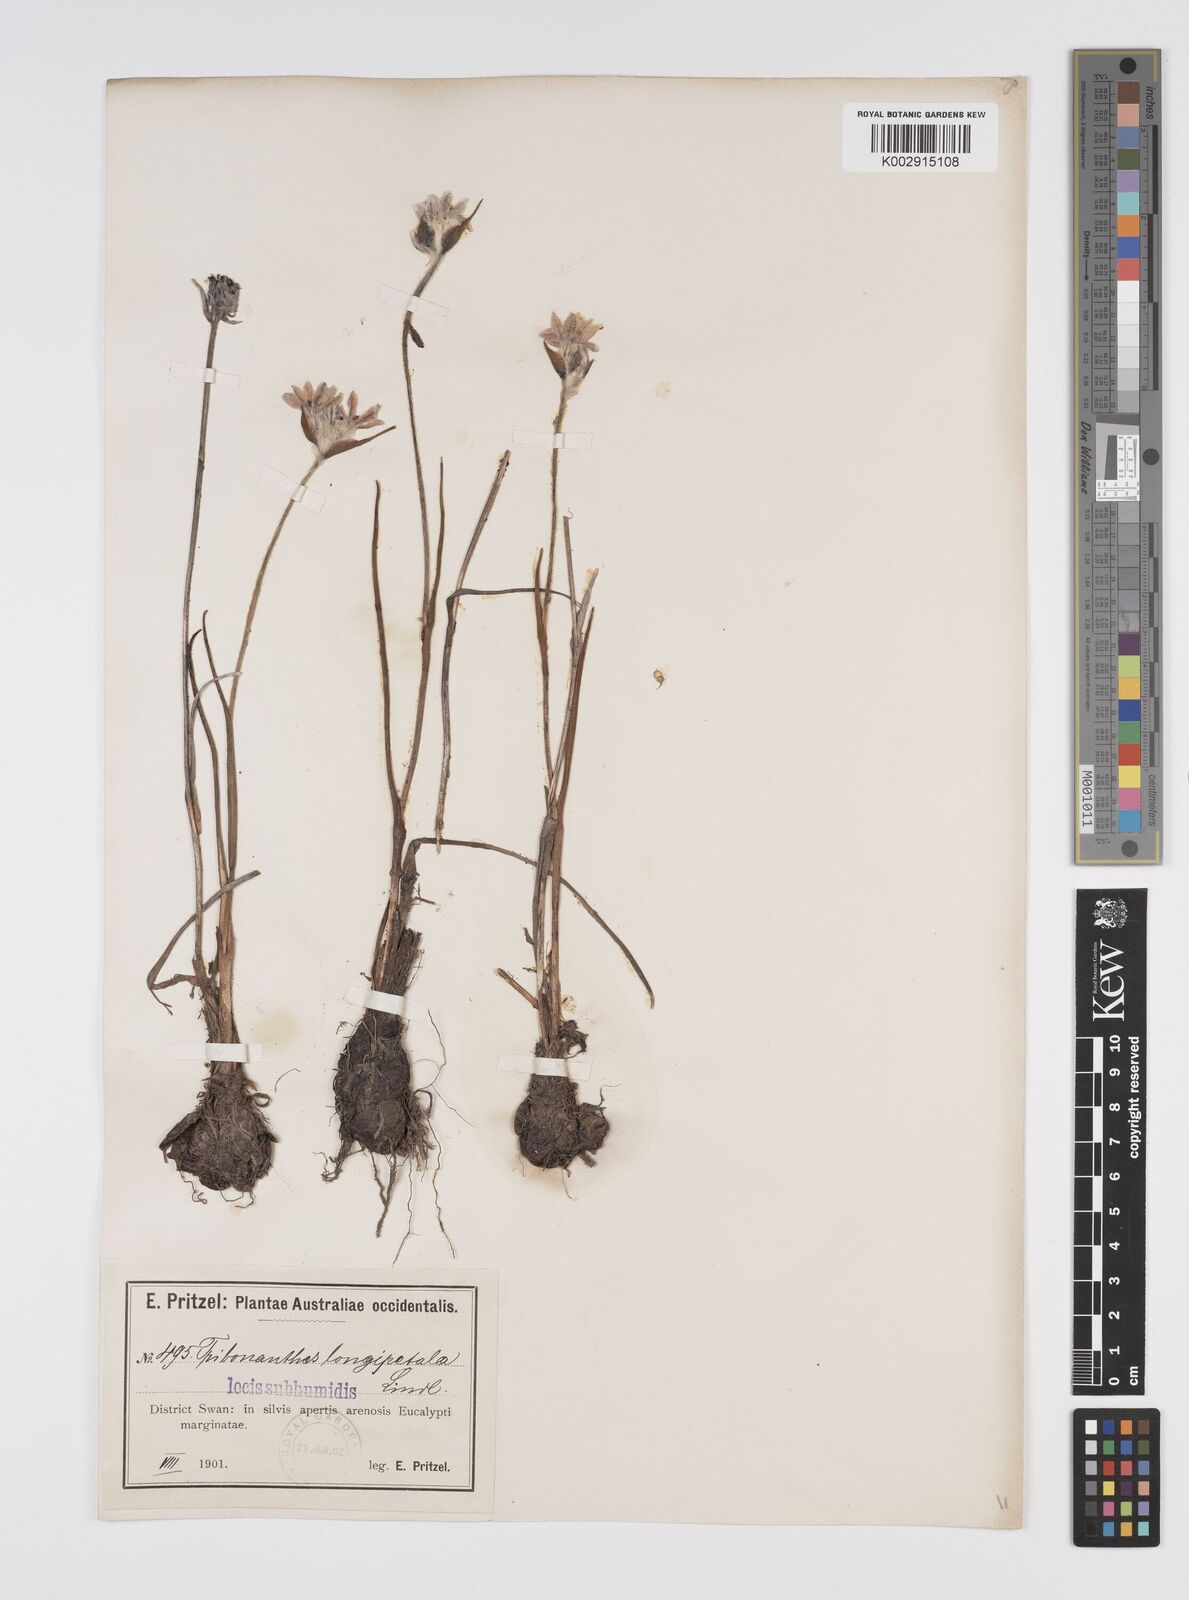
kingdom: Plantae
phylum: Tracheophyta
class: Liliopsida
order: Commelinales
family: Haemodoraceae
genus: Tribonanthes
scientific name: Tribonanthes longipetala
